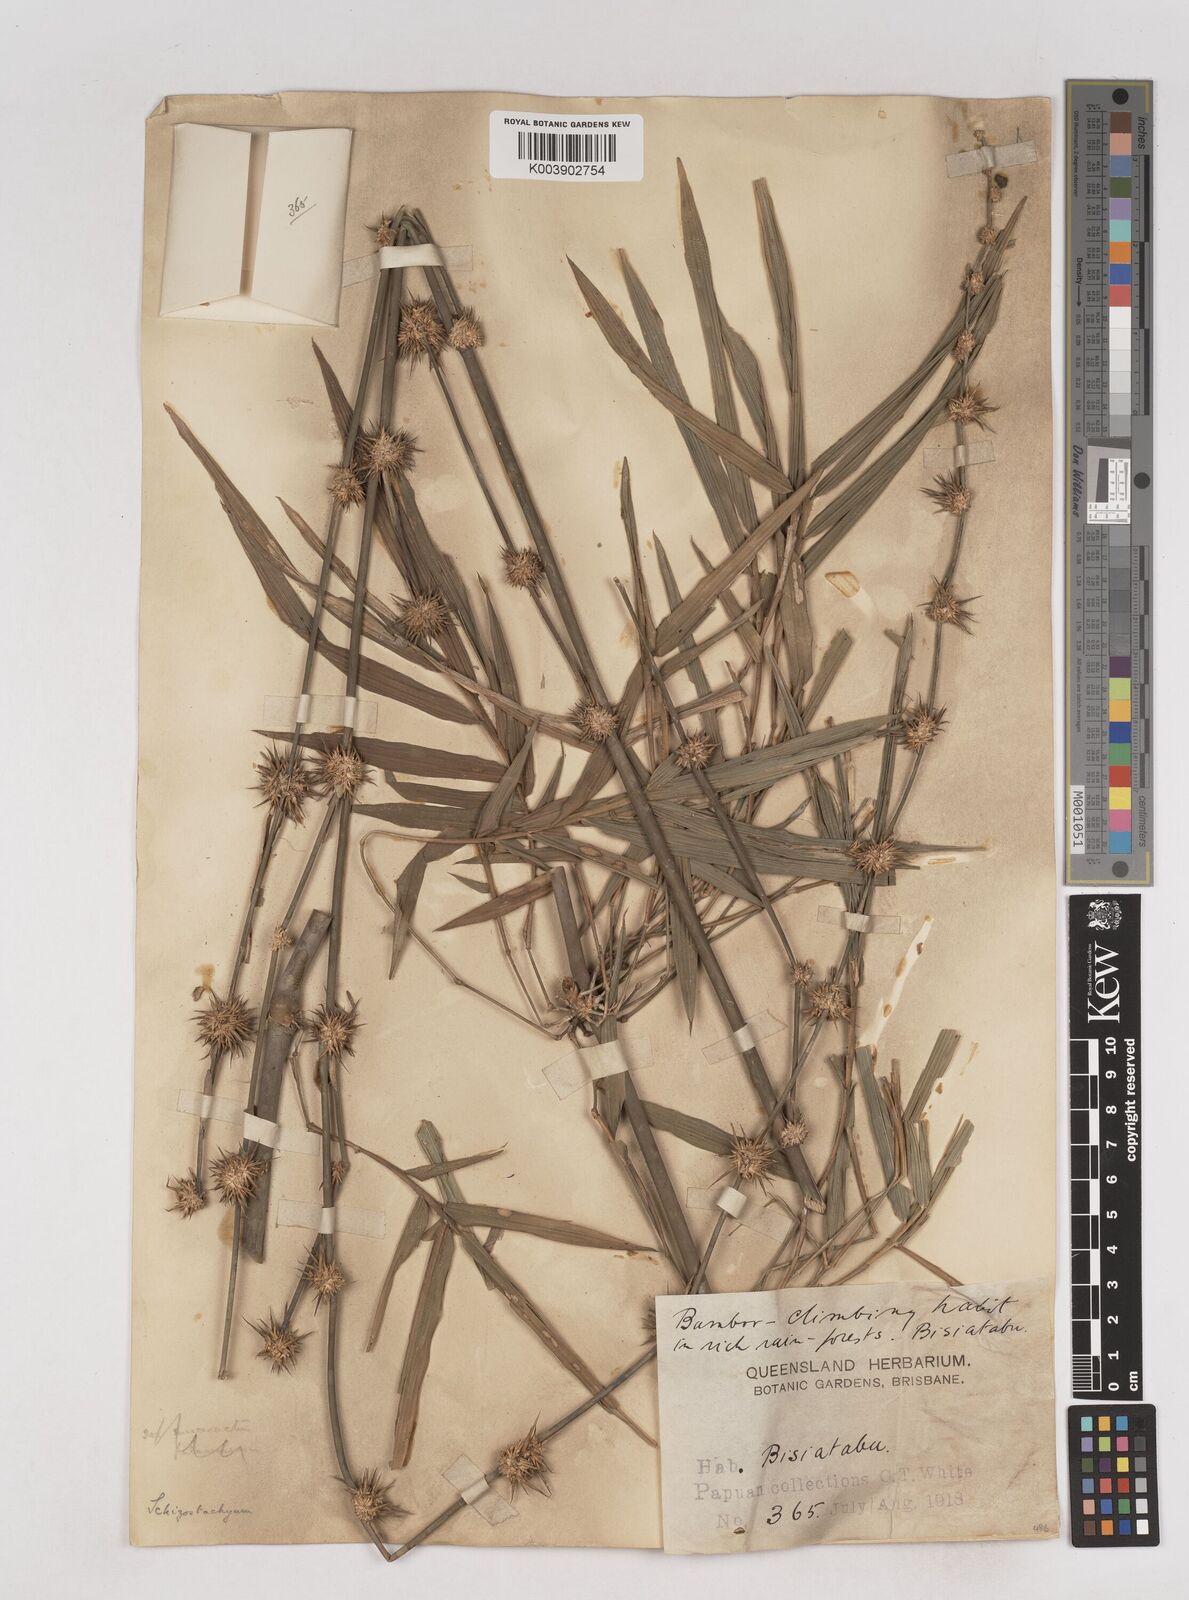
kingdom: Plantae
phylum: Tracheophyta
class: Liliopsida
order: Poales
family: Poaceae
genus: Schizostachyum
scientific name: Schizostachyum whitei
